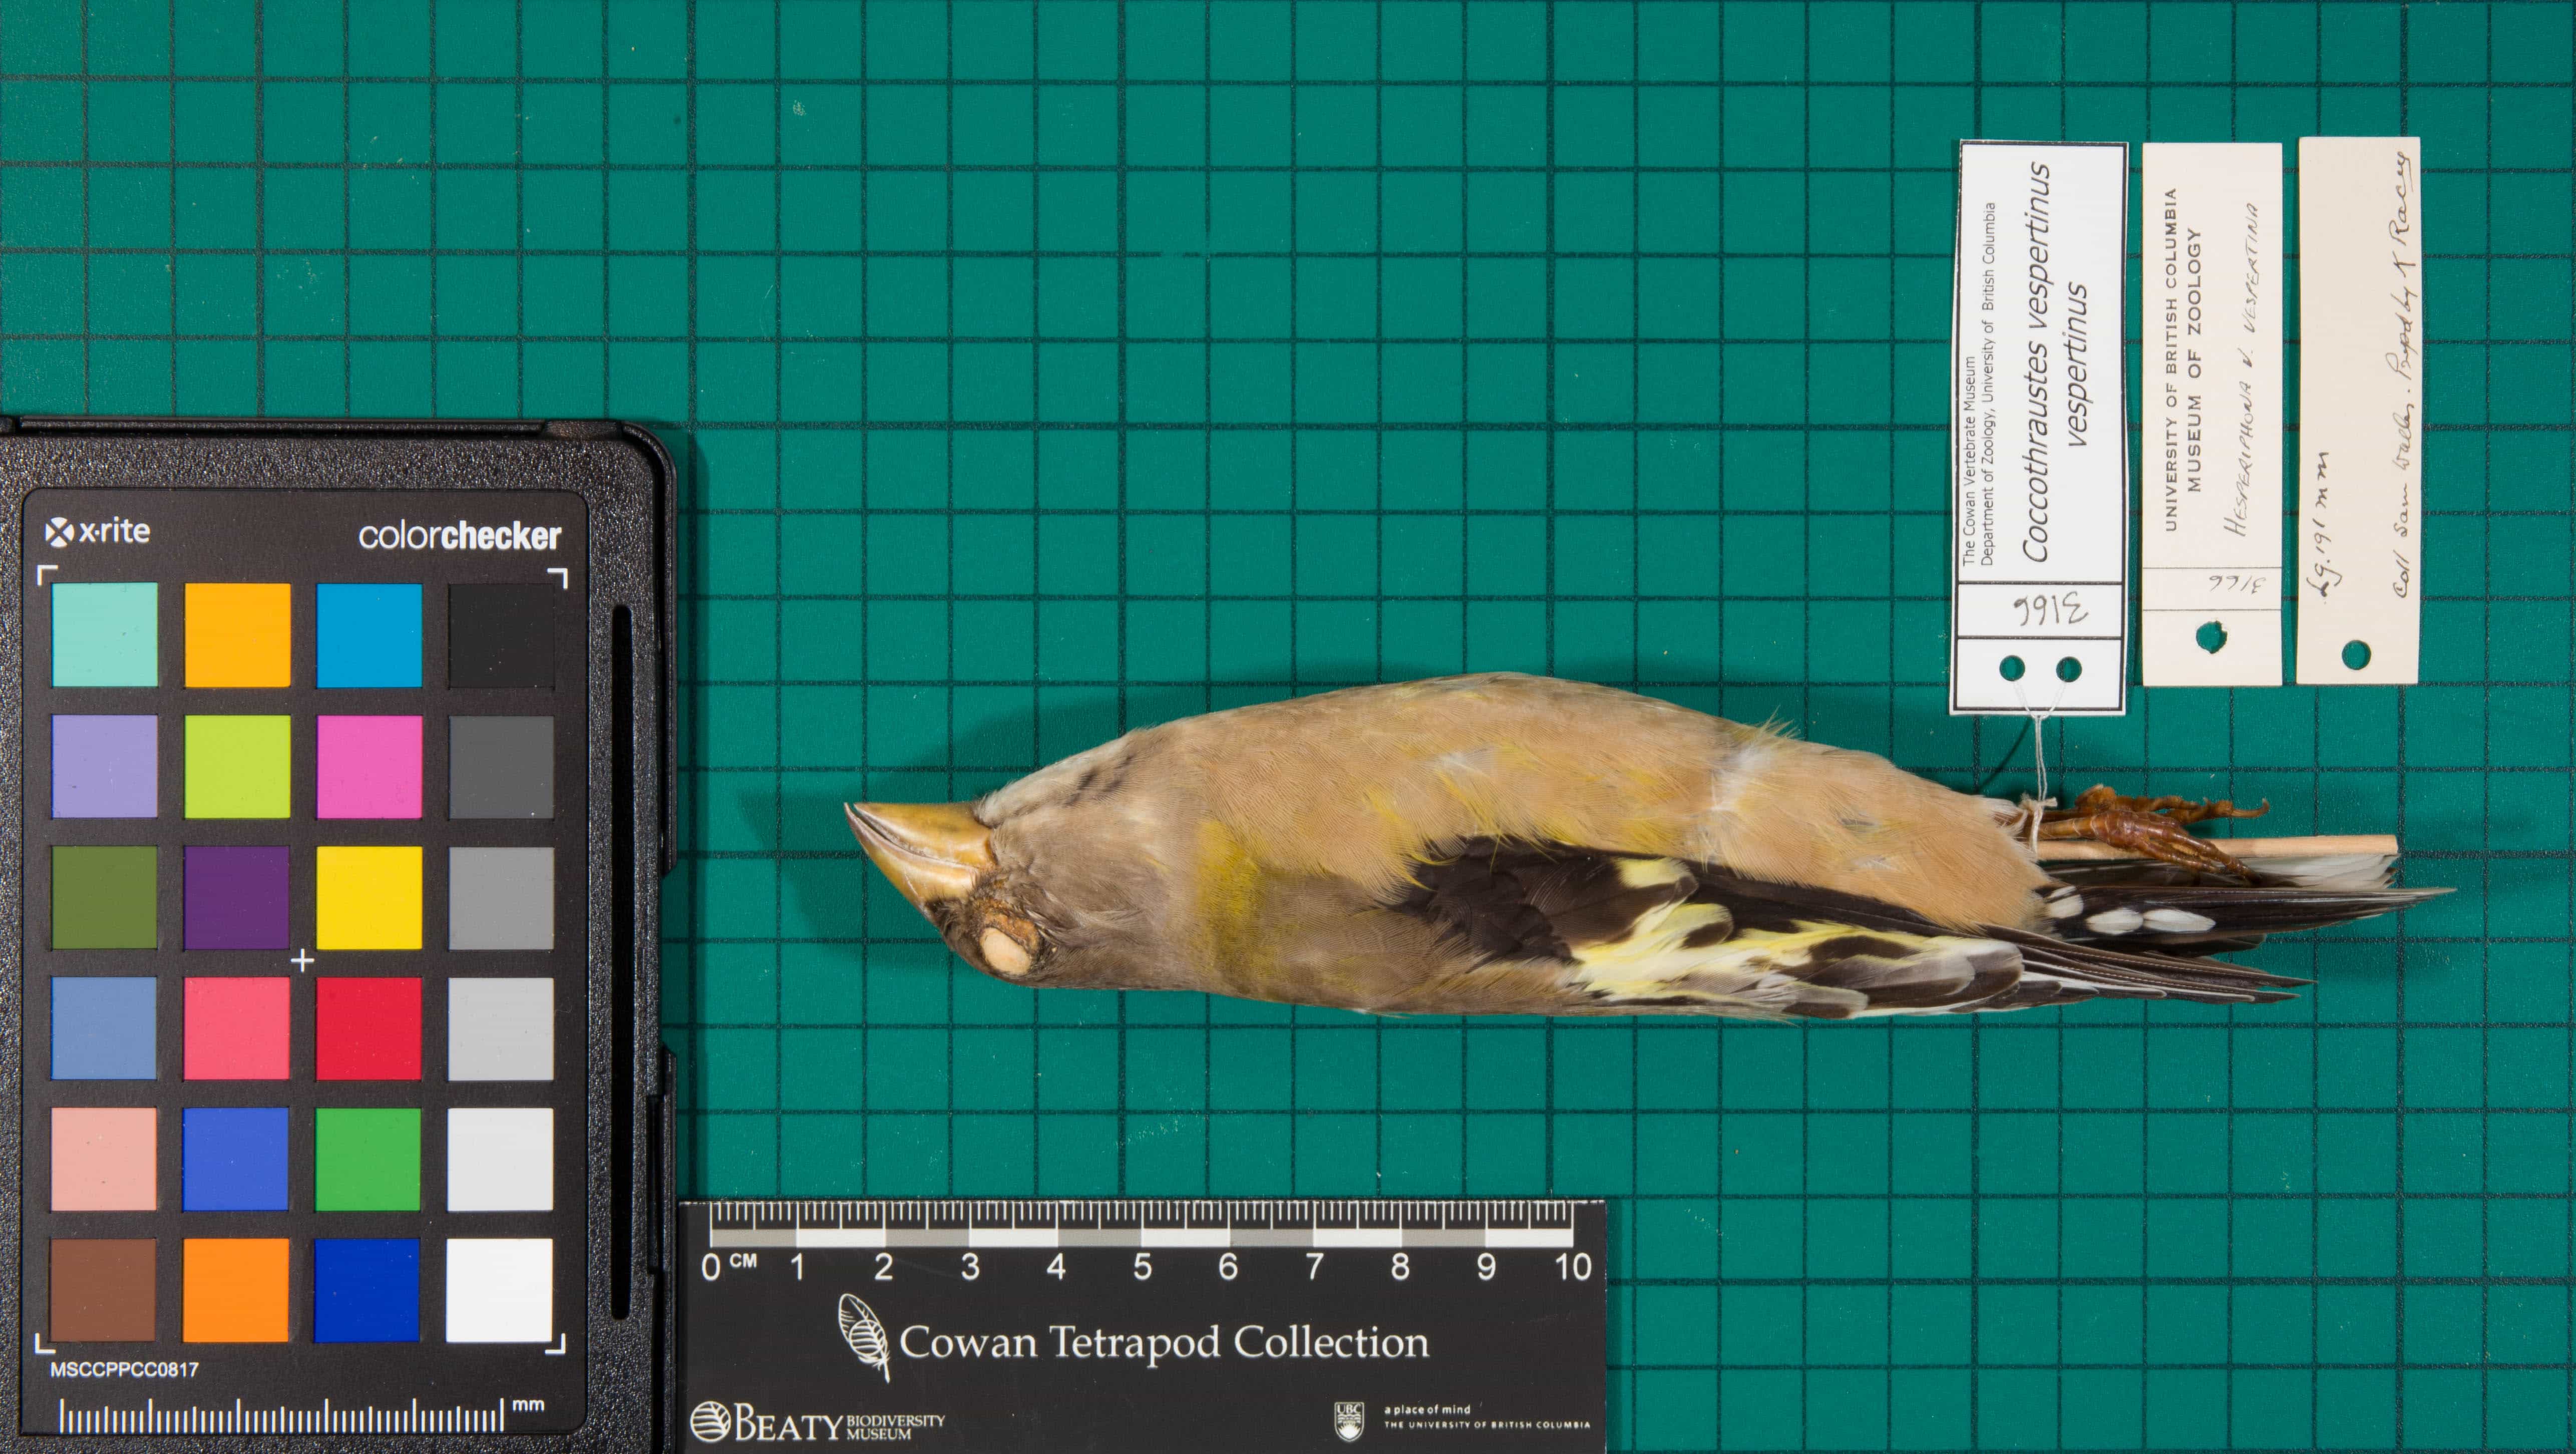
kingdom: Animalia
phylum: Chordata
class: Aves
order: Passeriformes
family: Fringillidae
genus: Hesperiphona
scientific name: Hesperiphona vespertina
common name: Evening Grosbeak
